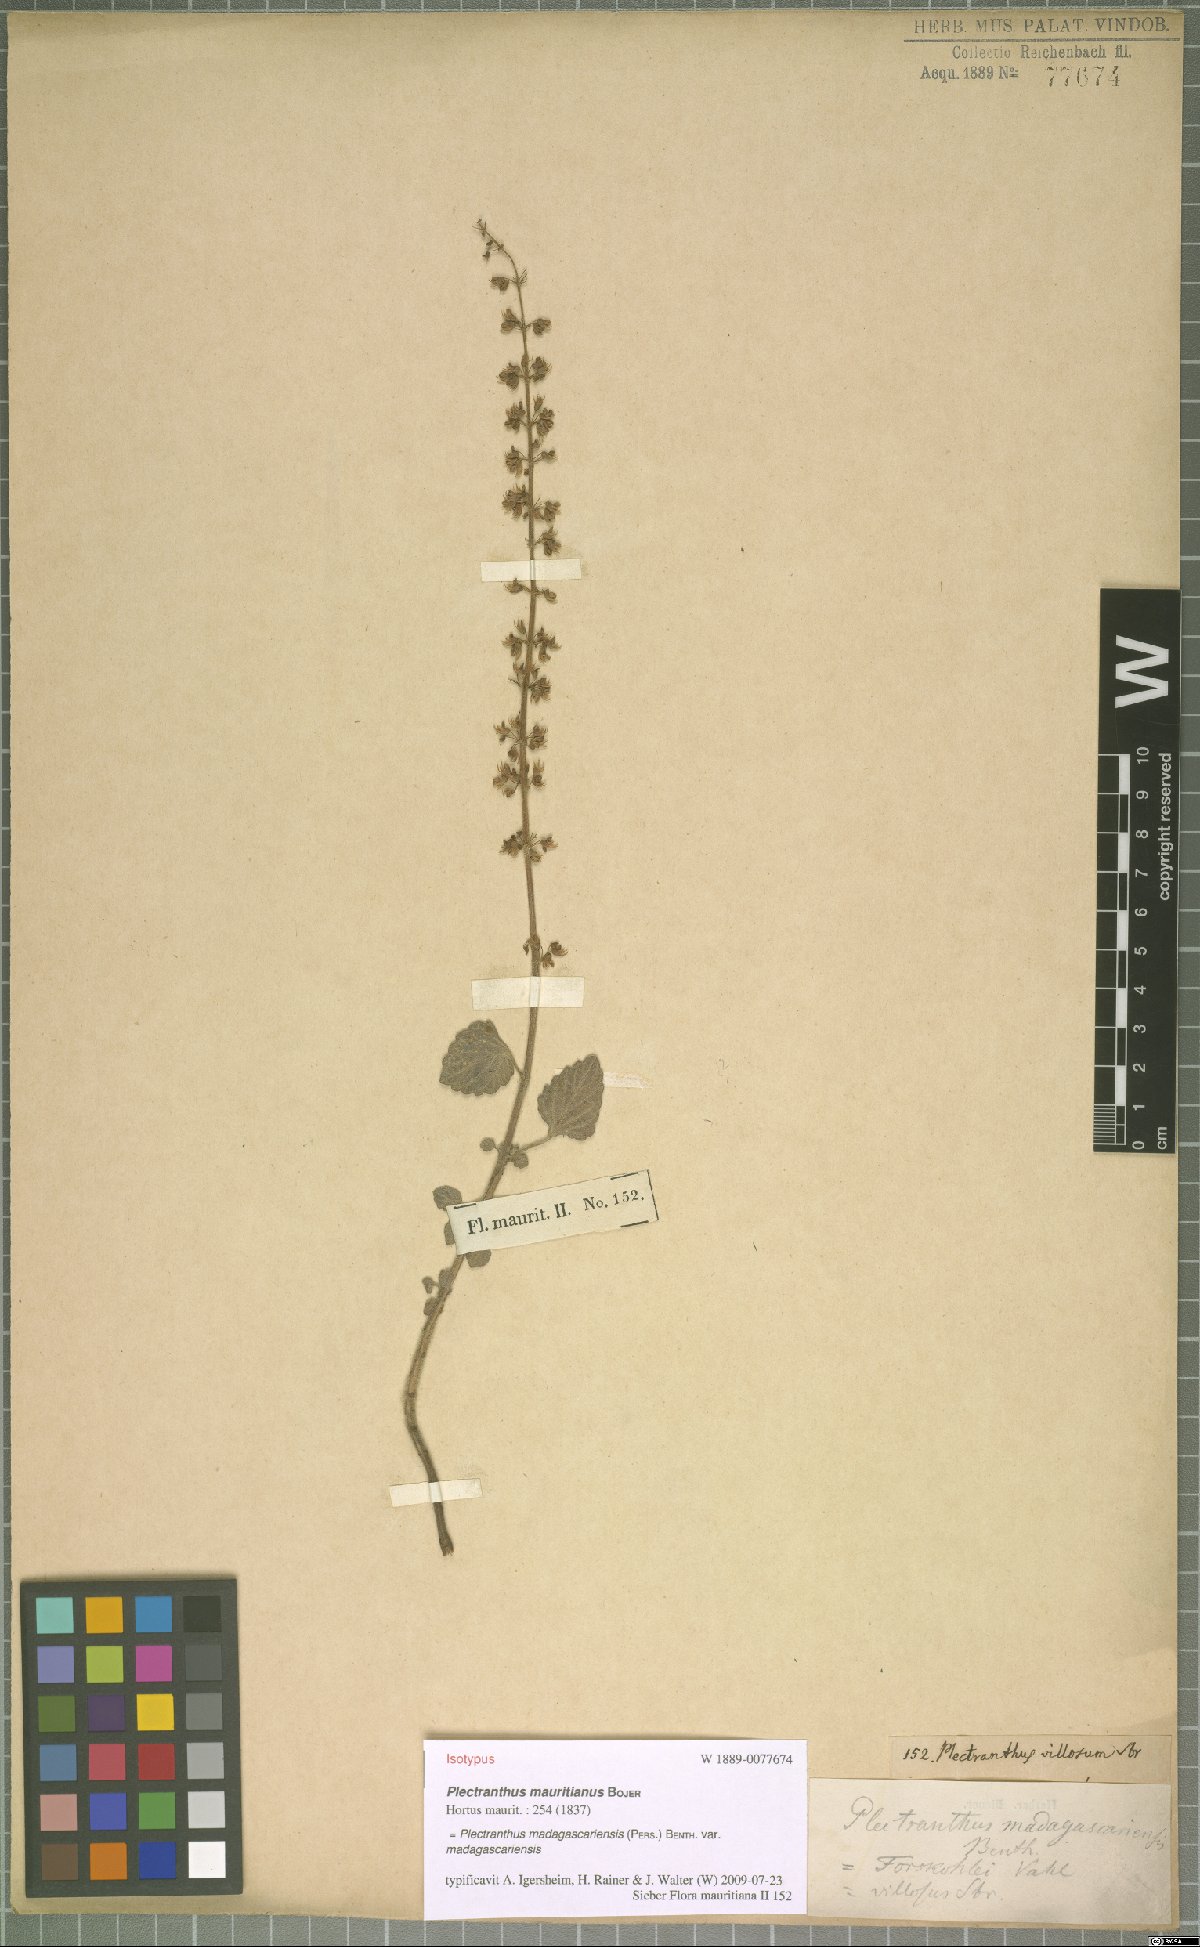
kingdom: Plantae
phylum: Tracheophyta
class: Magnoliopsida
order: Lamiales
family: Lamiaceae
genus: Coleus
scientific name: Coleus madagascariensis
